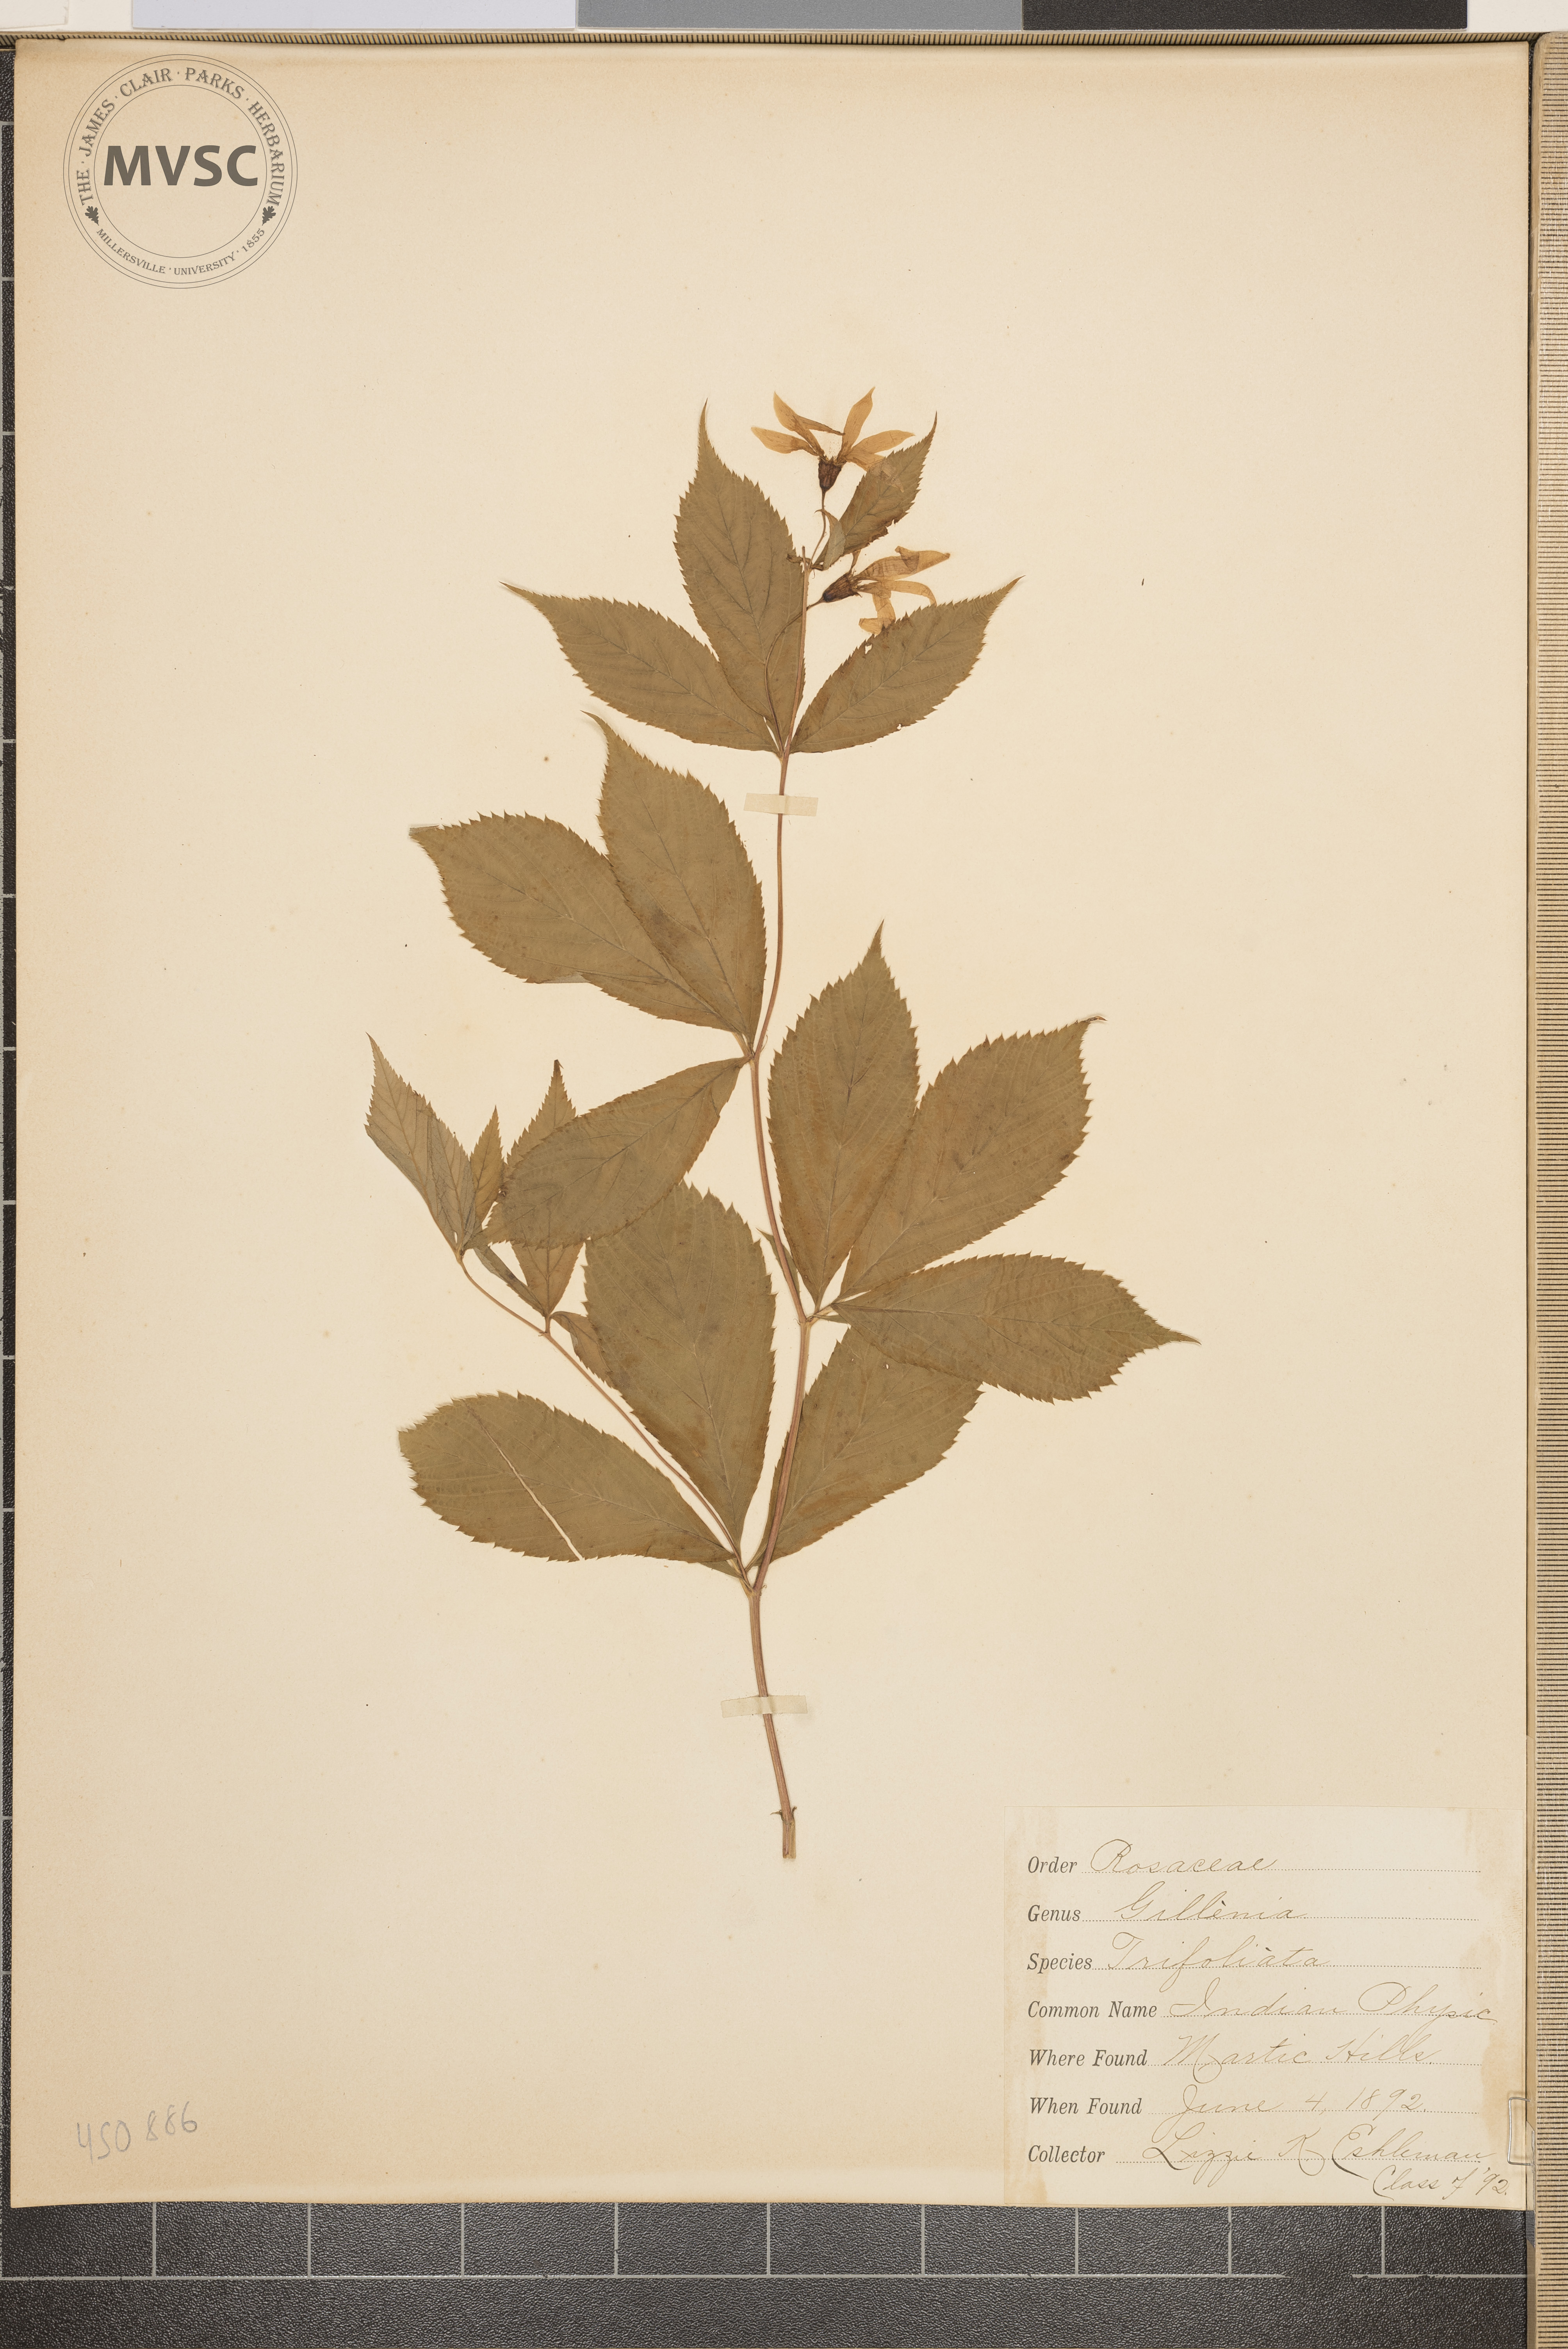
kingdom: Plantae
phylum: Tracheophyta
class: Magnoliopsida
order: Rosales
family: Rosaceae
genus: Gillenia
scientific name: Gillenia trifoliata
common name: Indian physic
